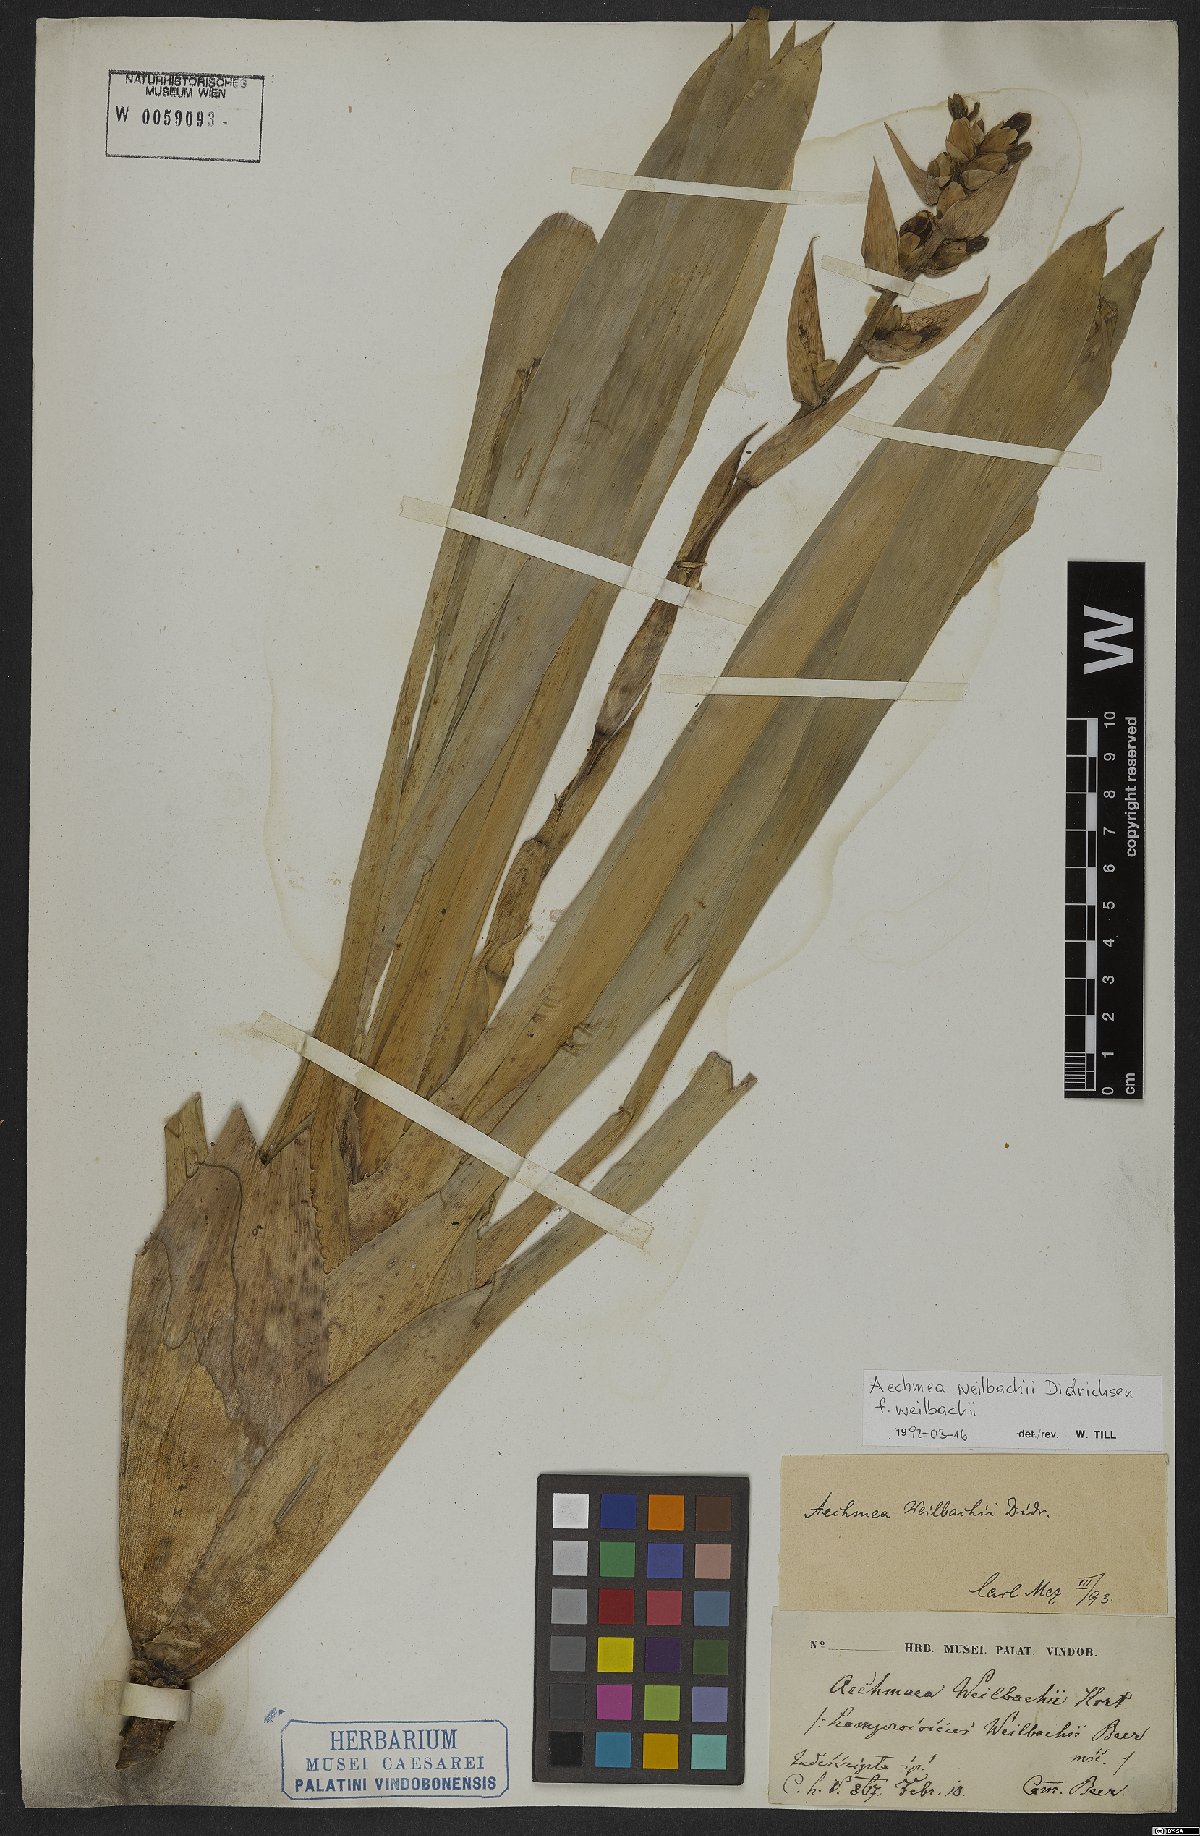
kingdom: Plantae
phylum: Tracheophyta
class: Liliopsida
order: Poales
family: Bromeliaceae
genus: Aechmea
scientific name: Aechmea weilbachii
